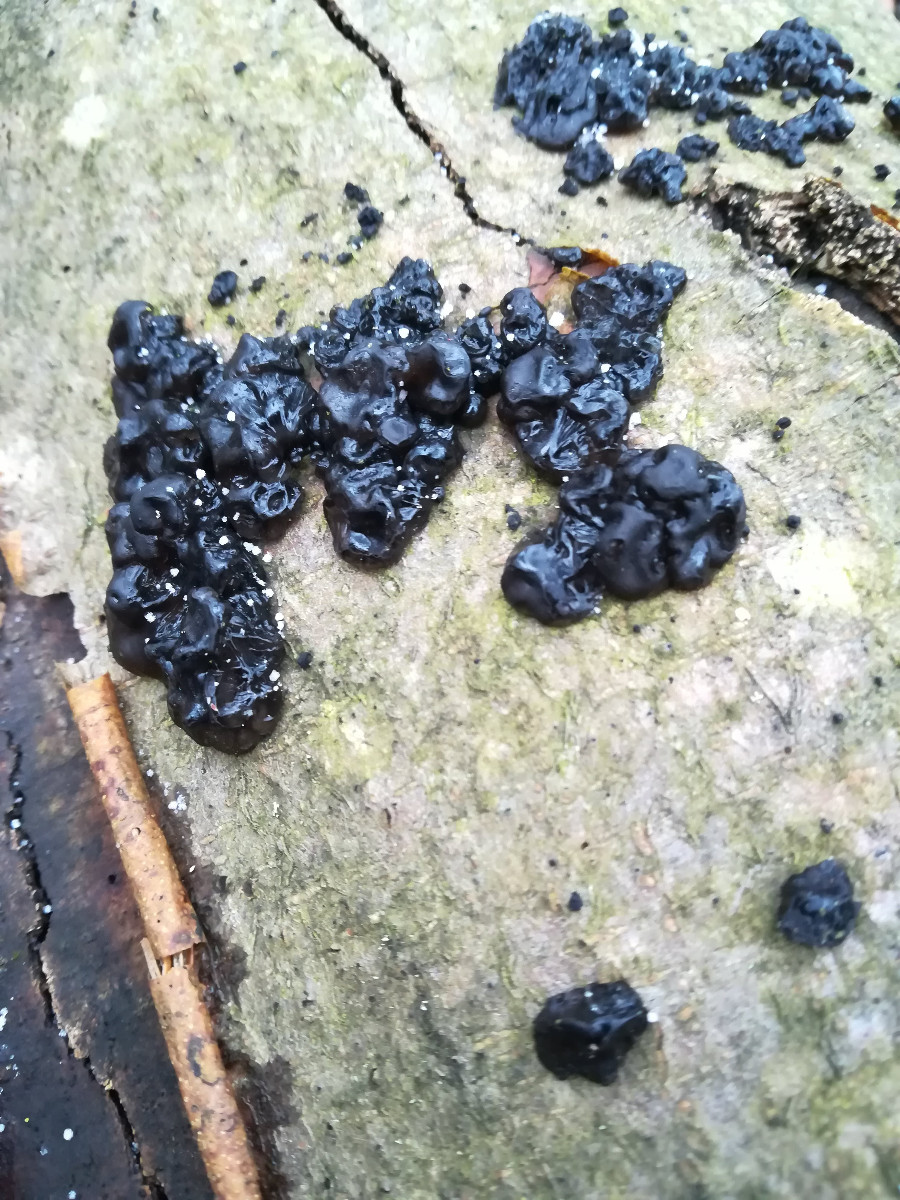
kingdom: Fungi
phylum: Basidiomycota
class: Agaricomycetes
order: Auriculariales
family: Auriculariaceae
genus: Exidia
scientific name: Exidia nigricans
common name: almindelig bævretop
